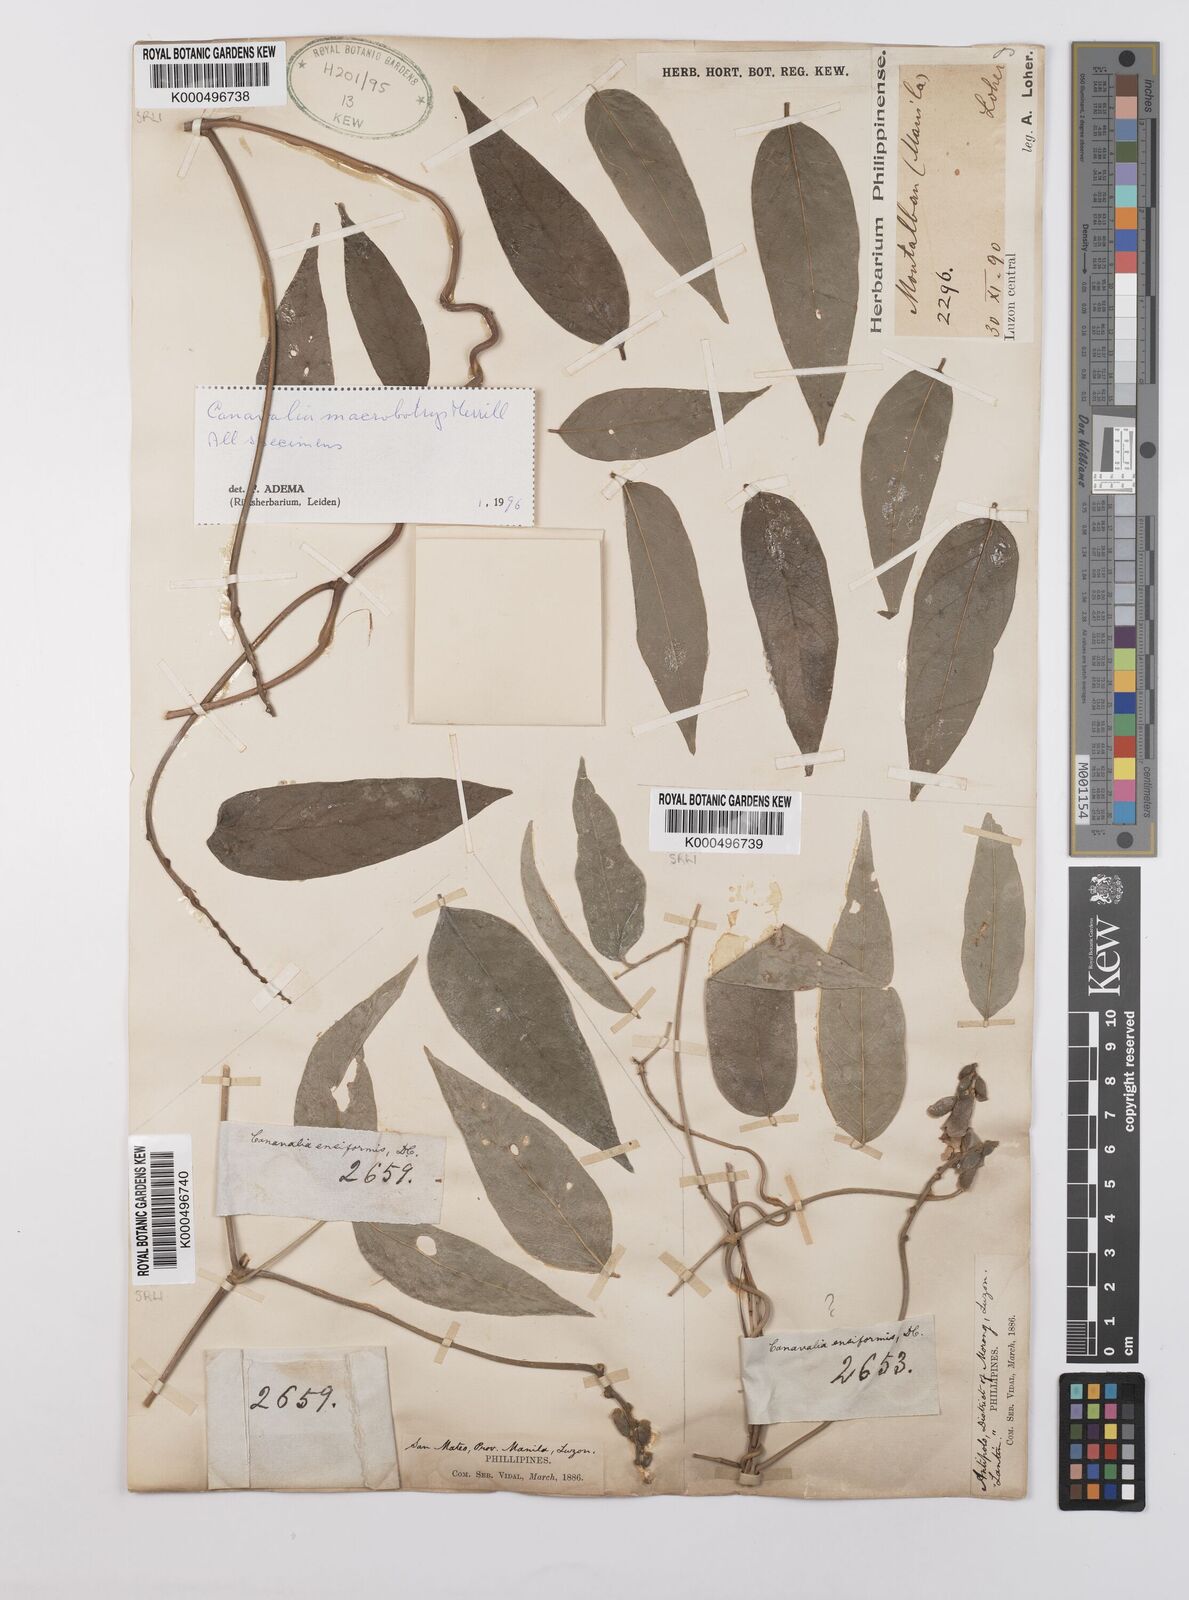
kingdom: Plantae
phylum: Tracheophyta
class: Magnoliopsida
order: Fabales
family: Fabaceae
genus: Canavalia
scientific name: Canavalia macrobotrys
